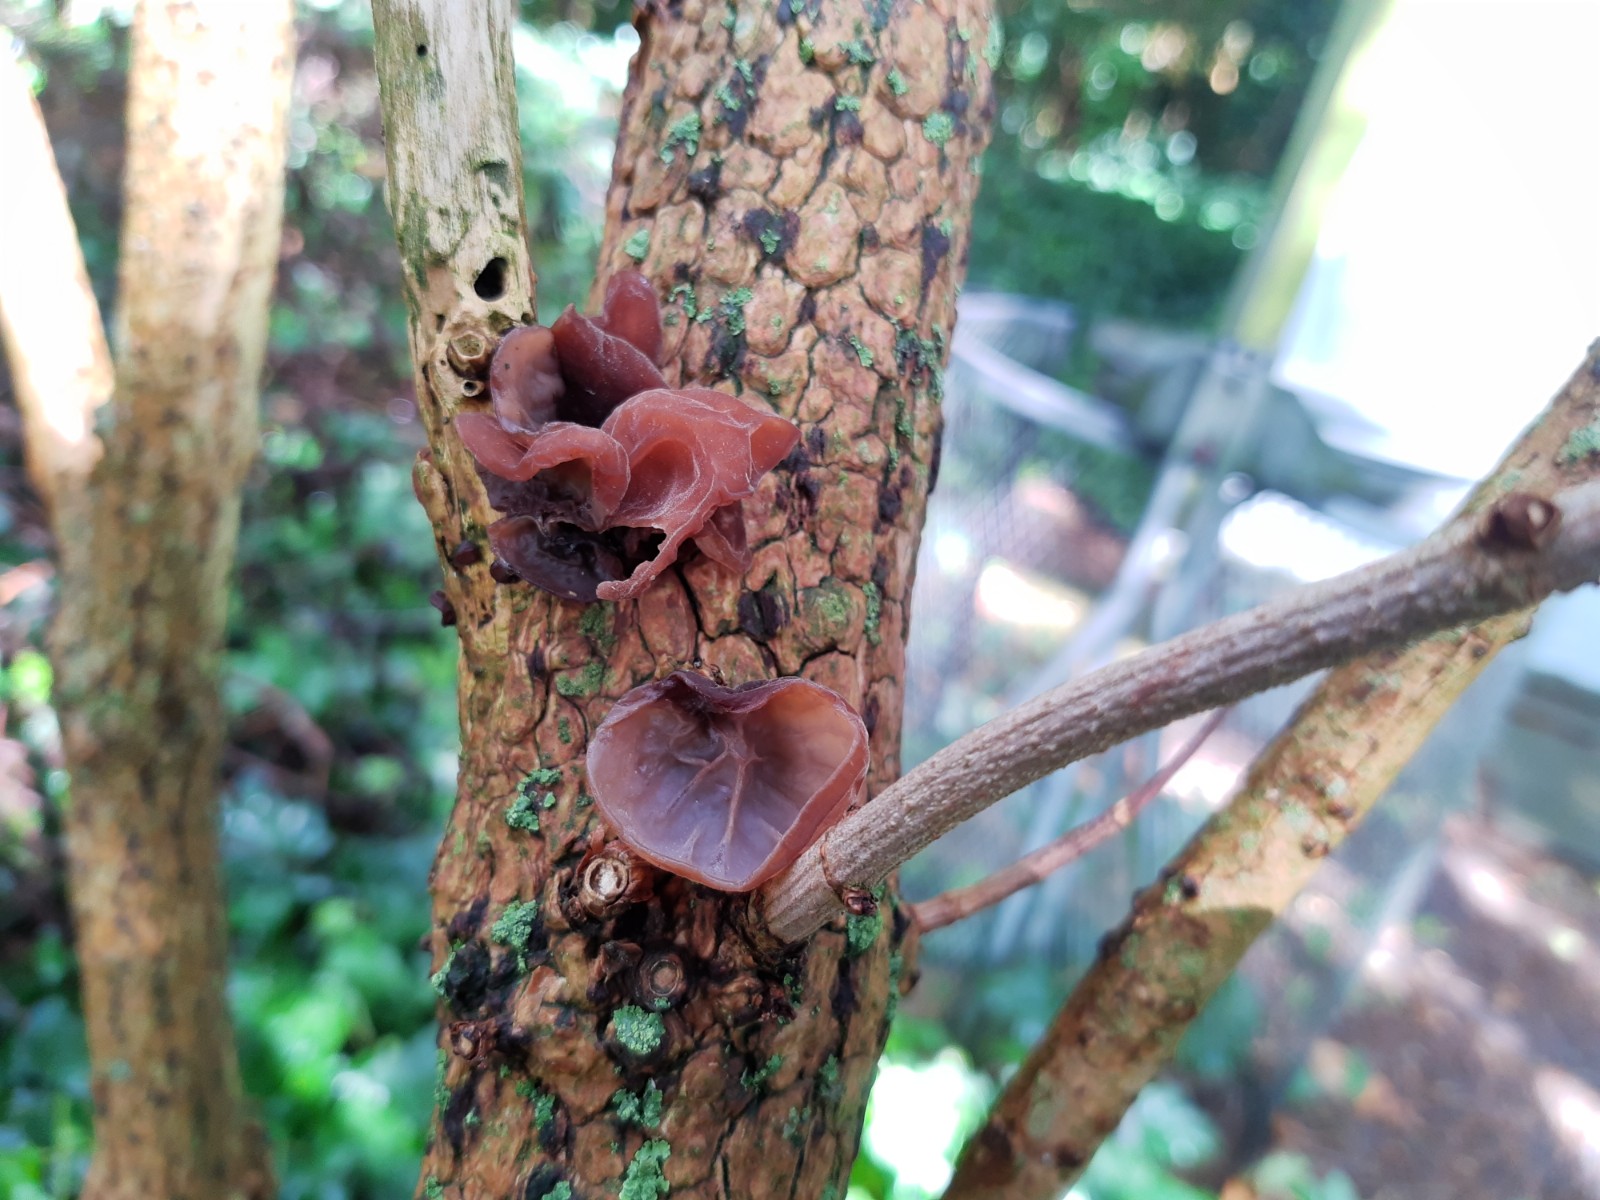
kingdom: Fungi
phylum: Basidiomycota
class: Agaricomycetes
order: Auriculariales
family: Auriculariaceae
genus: Auricularia
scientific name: Auricularia auricula-judae
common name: almindelig judasøre
